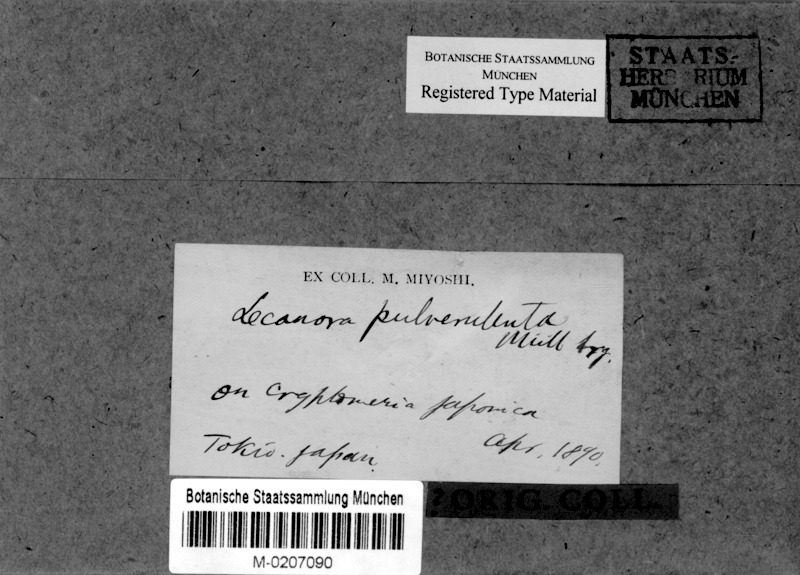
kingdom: Fungi
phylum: Ascomycota
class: Lecanoromycetes
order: Lecanorales
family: Lecanoraceae
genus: Lecanora
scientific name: Lecanora pulverulenta
